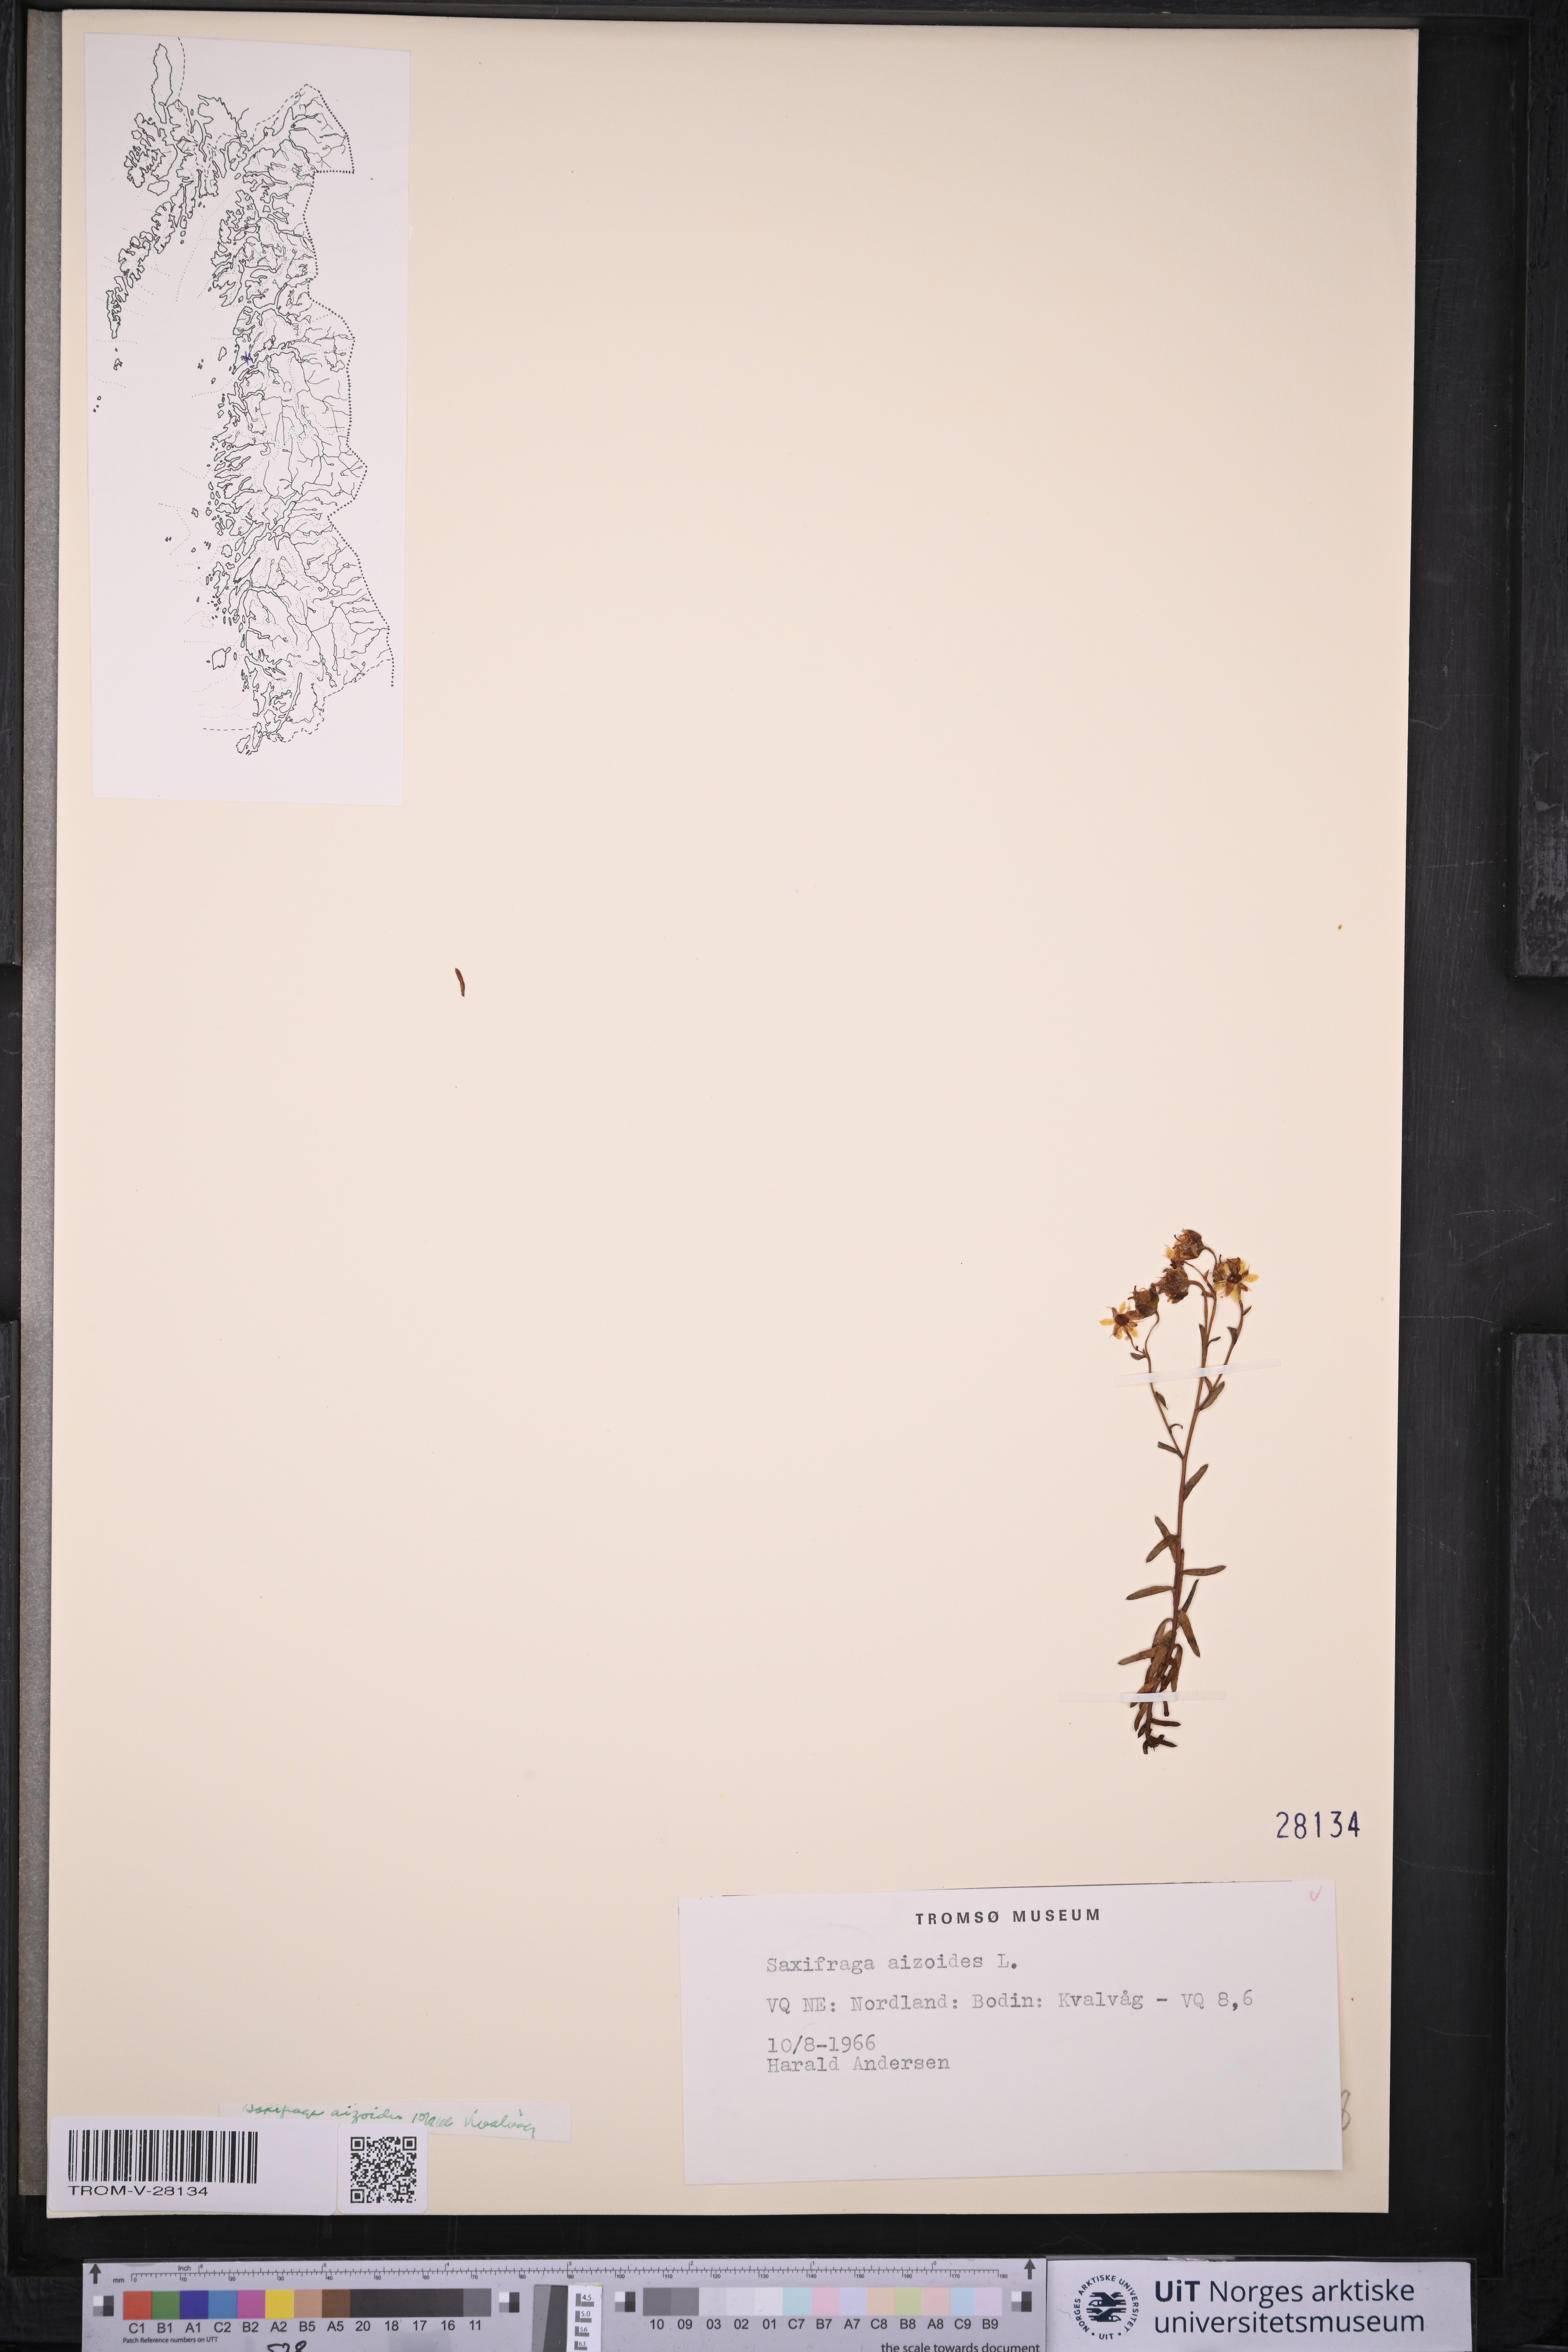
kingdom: Plantae
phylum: Tracheophyta
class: Magnoliopsida
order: Saxifragales
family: Saxifragaceae
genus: Saxifraga
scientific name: Saxifraga aizoides
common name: Yellow mountain saxifrage
